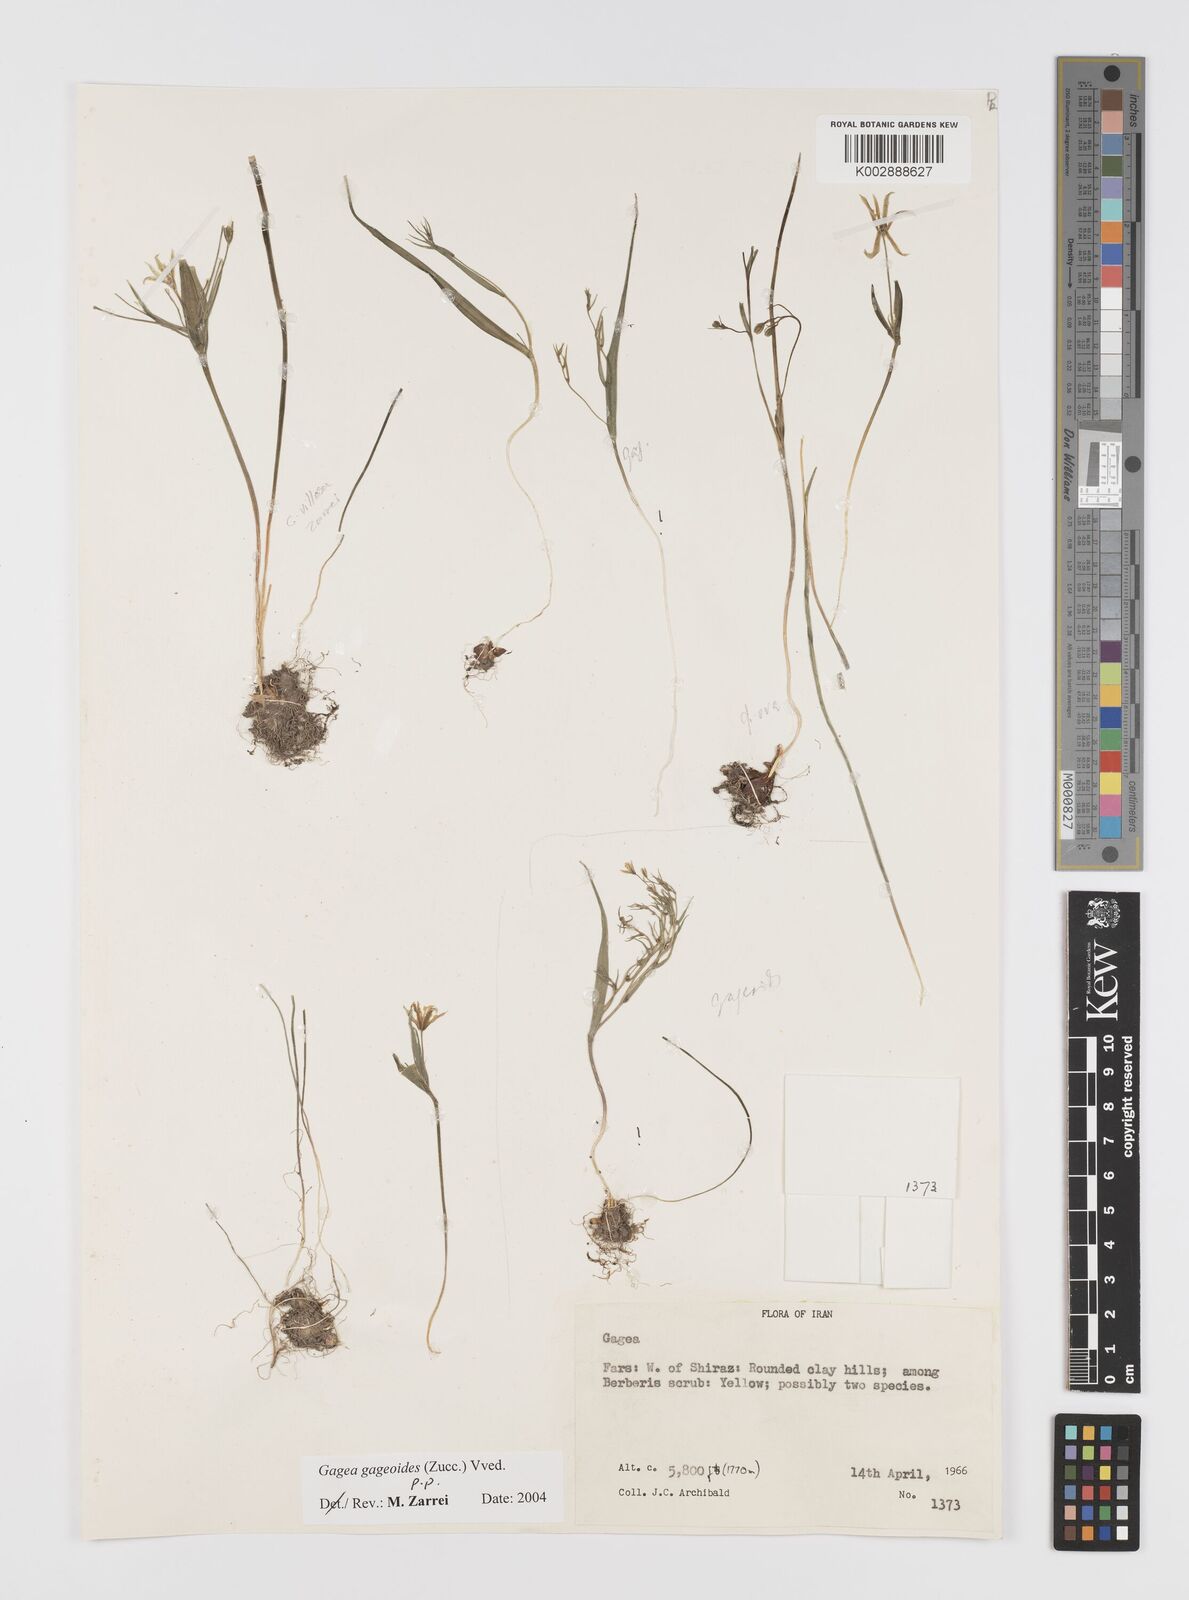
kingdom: Plantae
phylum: Tracheophyta
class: Liliopsida
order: Liliales
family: Liliaceae
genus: Gagea
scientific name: Gagea gageoides
